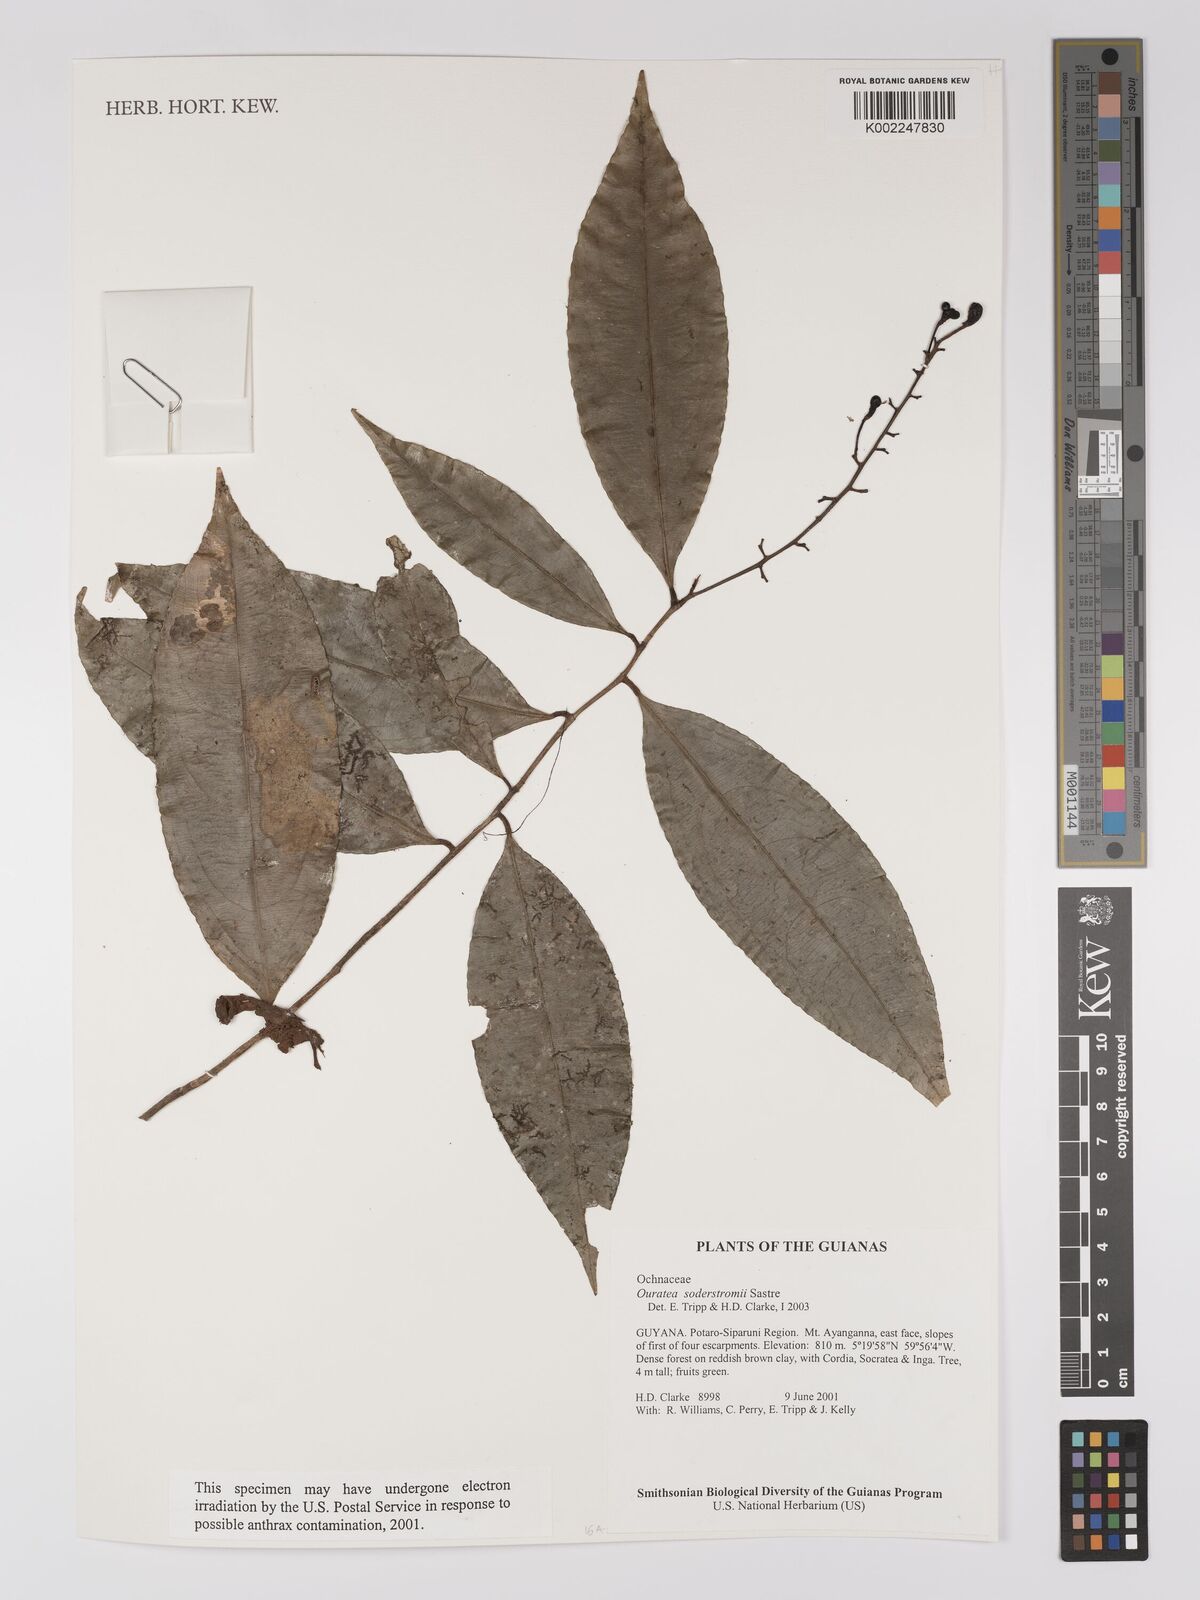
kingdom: Plantae
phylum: Tracheophyta
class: Magnoliopsida
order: Malpighiales
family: Ochnaceae
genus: Ouratea
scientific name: Ouratea soderstromii
